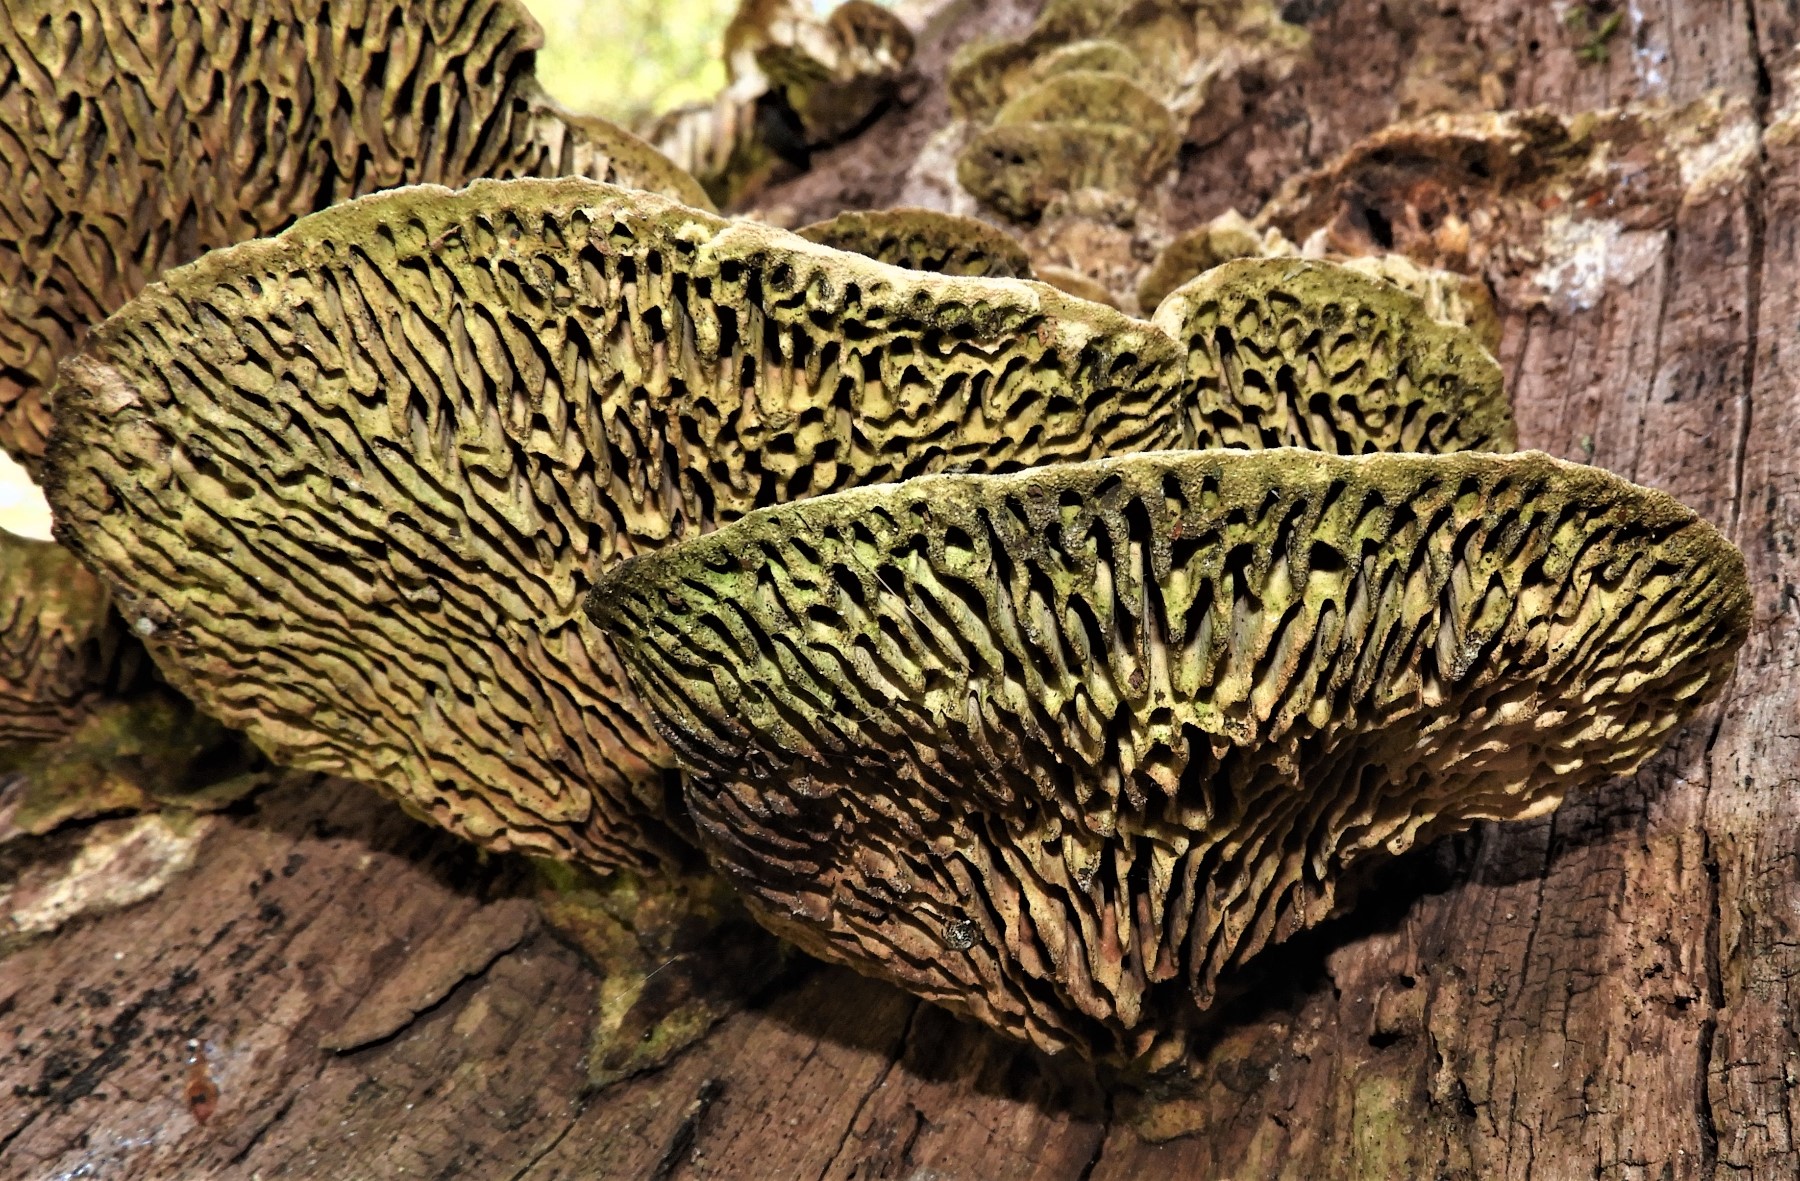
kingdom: Fungi
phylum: Basidiomycota
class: Agaricomycetes
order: Polyporales
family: Fomitopsidaceae
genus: Daedalea
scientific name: Daedalea quercina
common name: ege-labyrintsvamp
